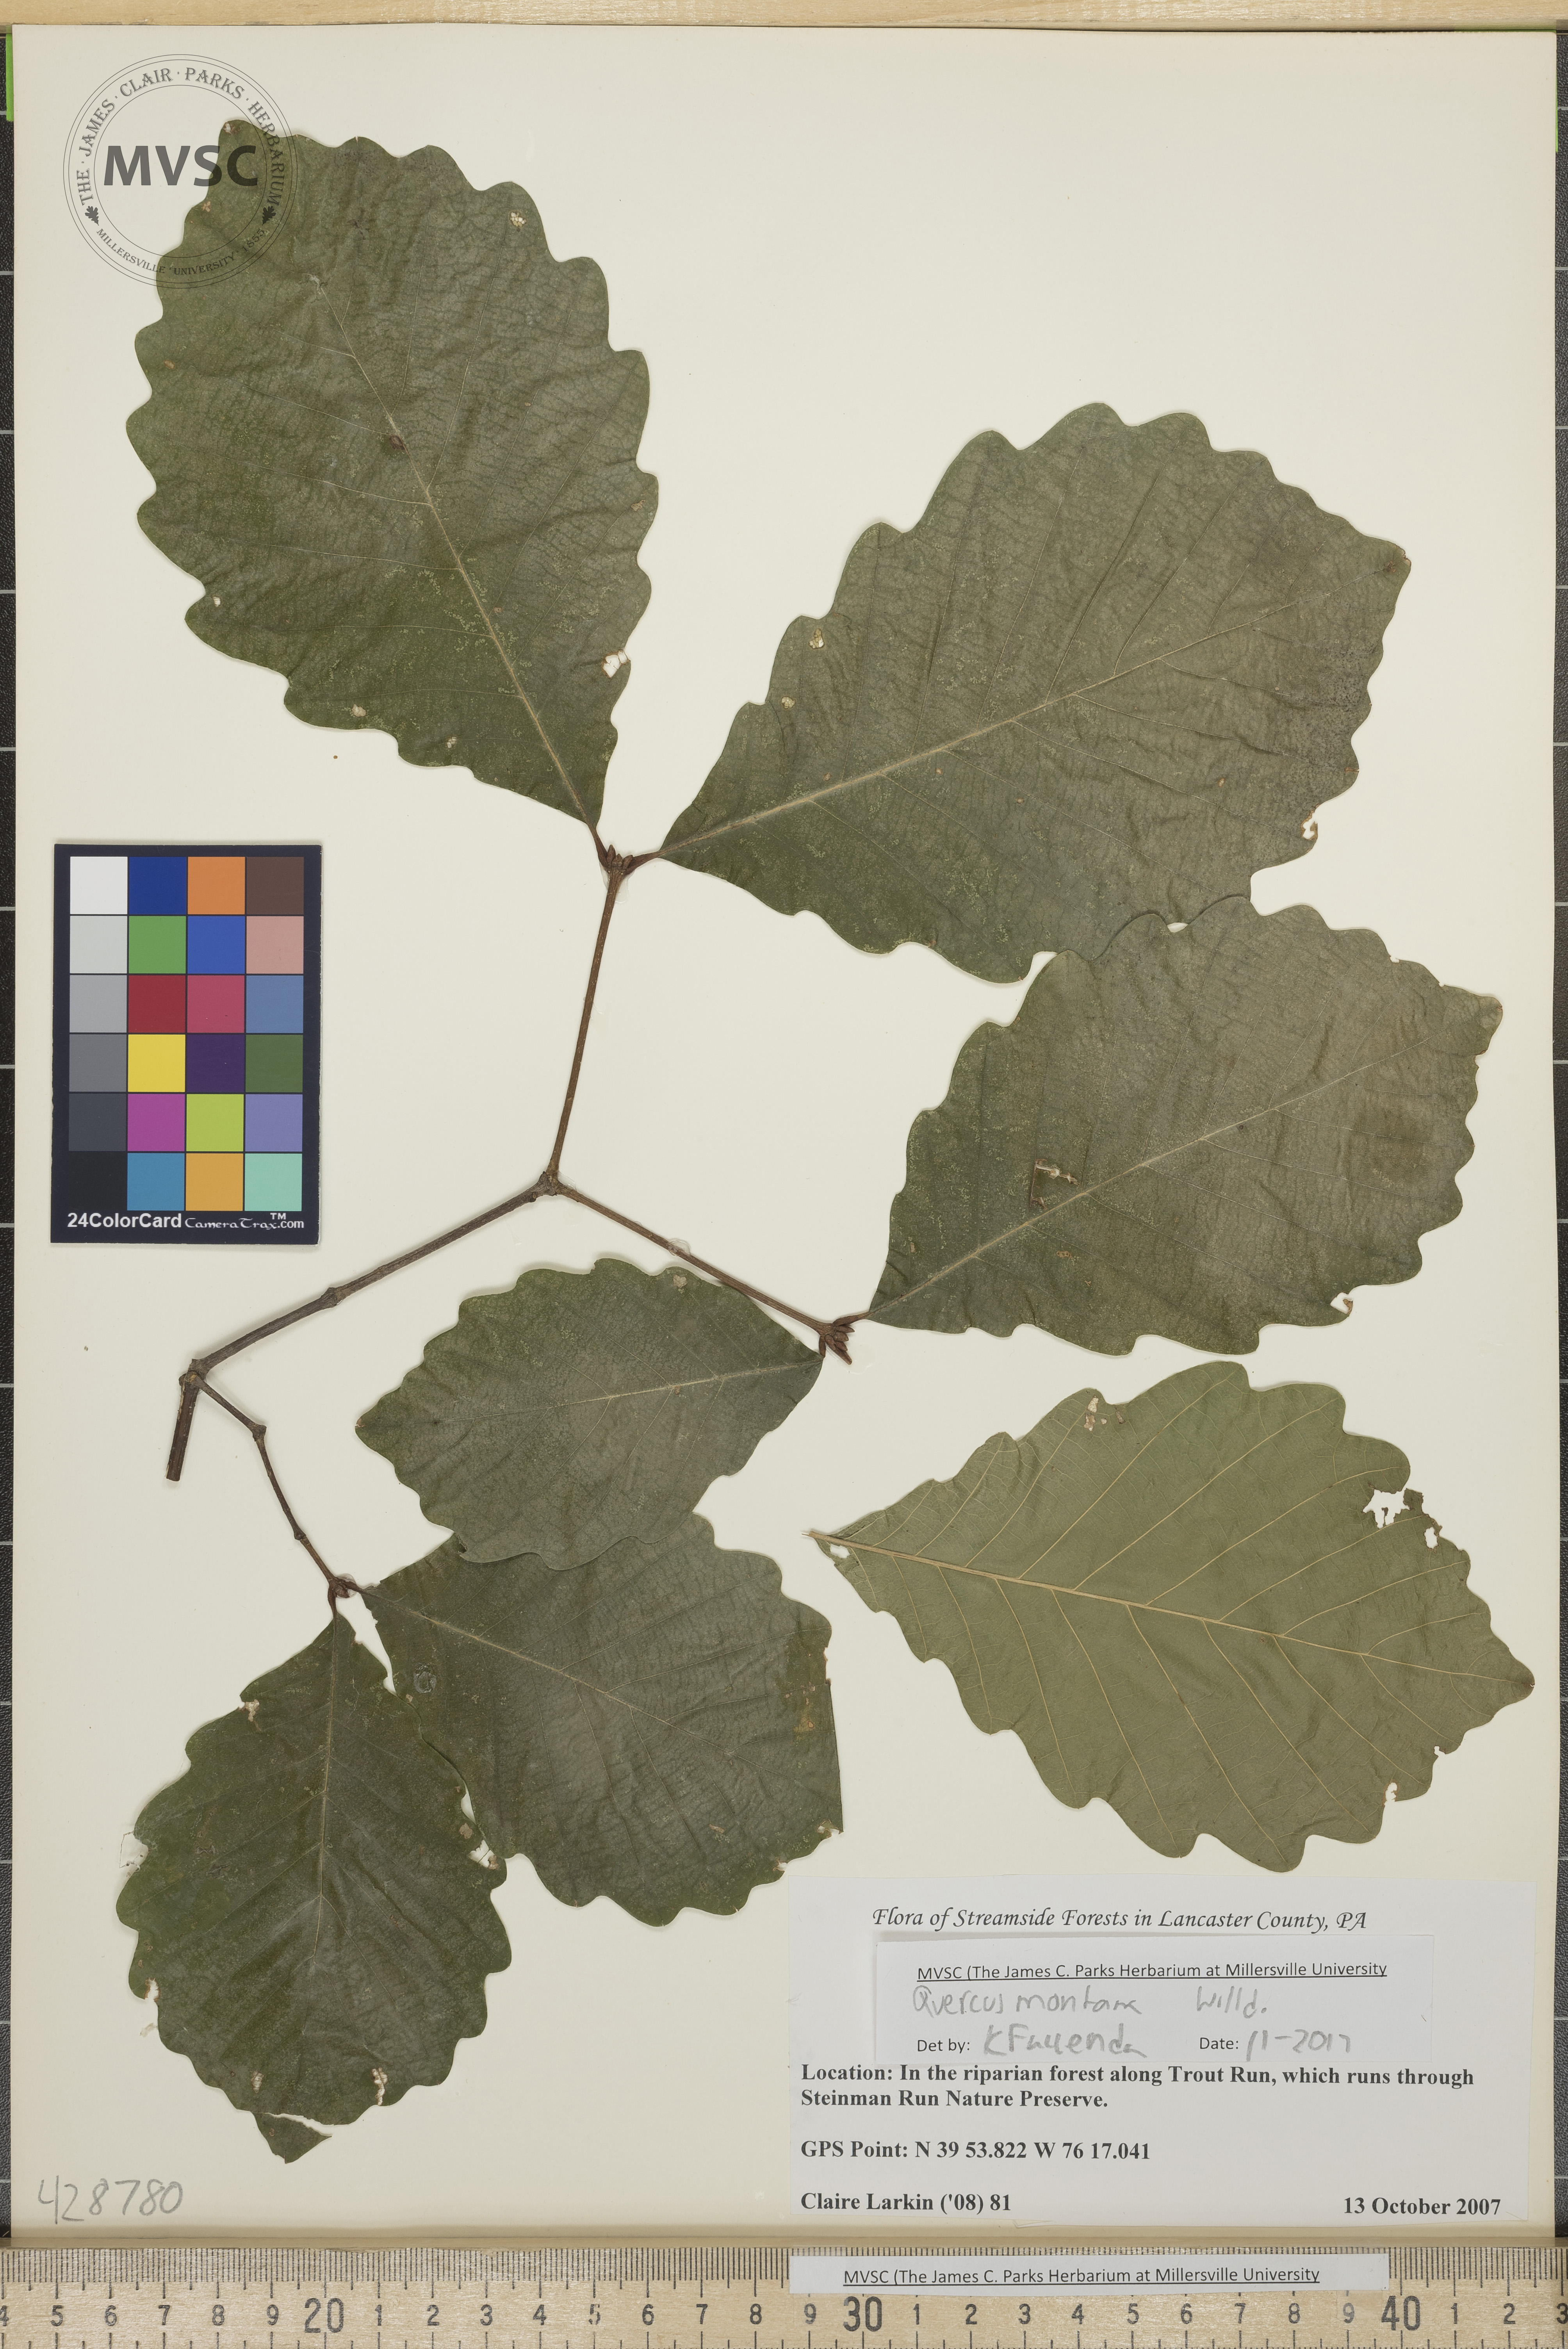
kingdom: Plantae
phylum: Tracheophyta
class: Magnoliopsida
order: Fagales
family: Fagaceae
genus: Quercus
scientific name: Quercus montana
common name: Chestnut oak
